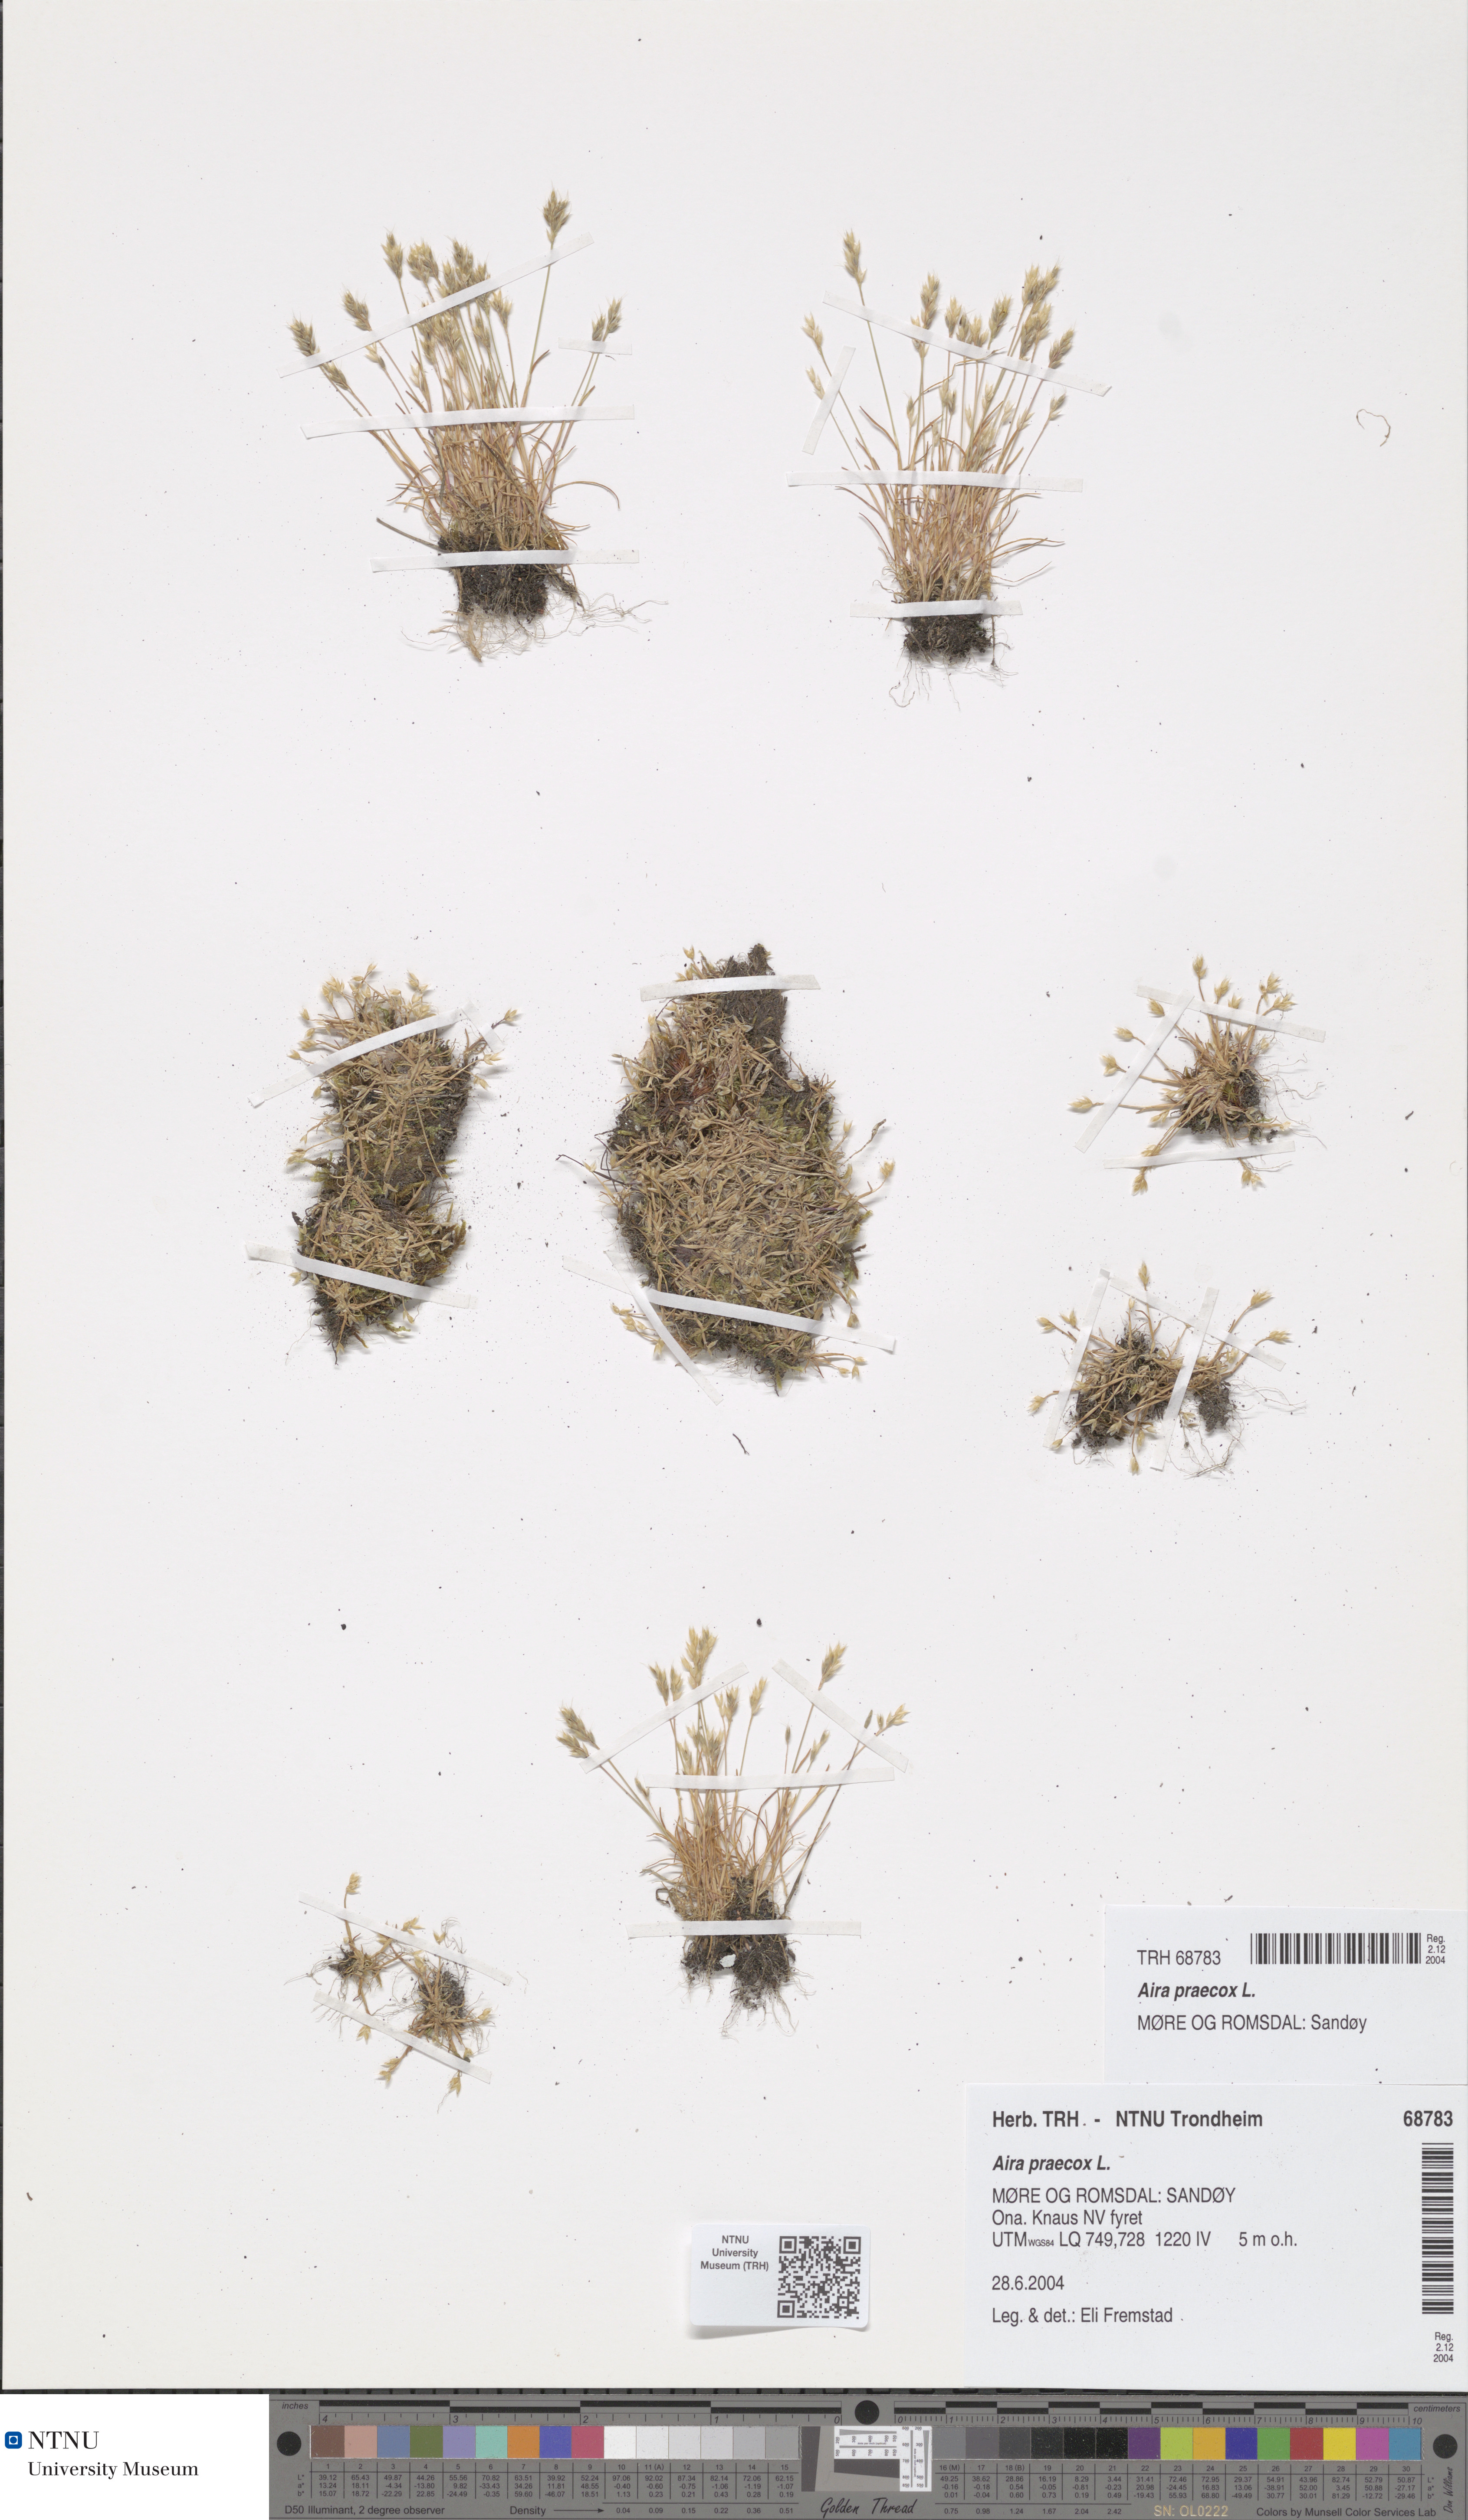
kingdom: Plantae
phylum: Tracheophyta
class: Liliopsida
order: Poales
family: Poaceae
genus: Aira
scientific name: Aira praecox
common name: Early hair-grass
